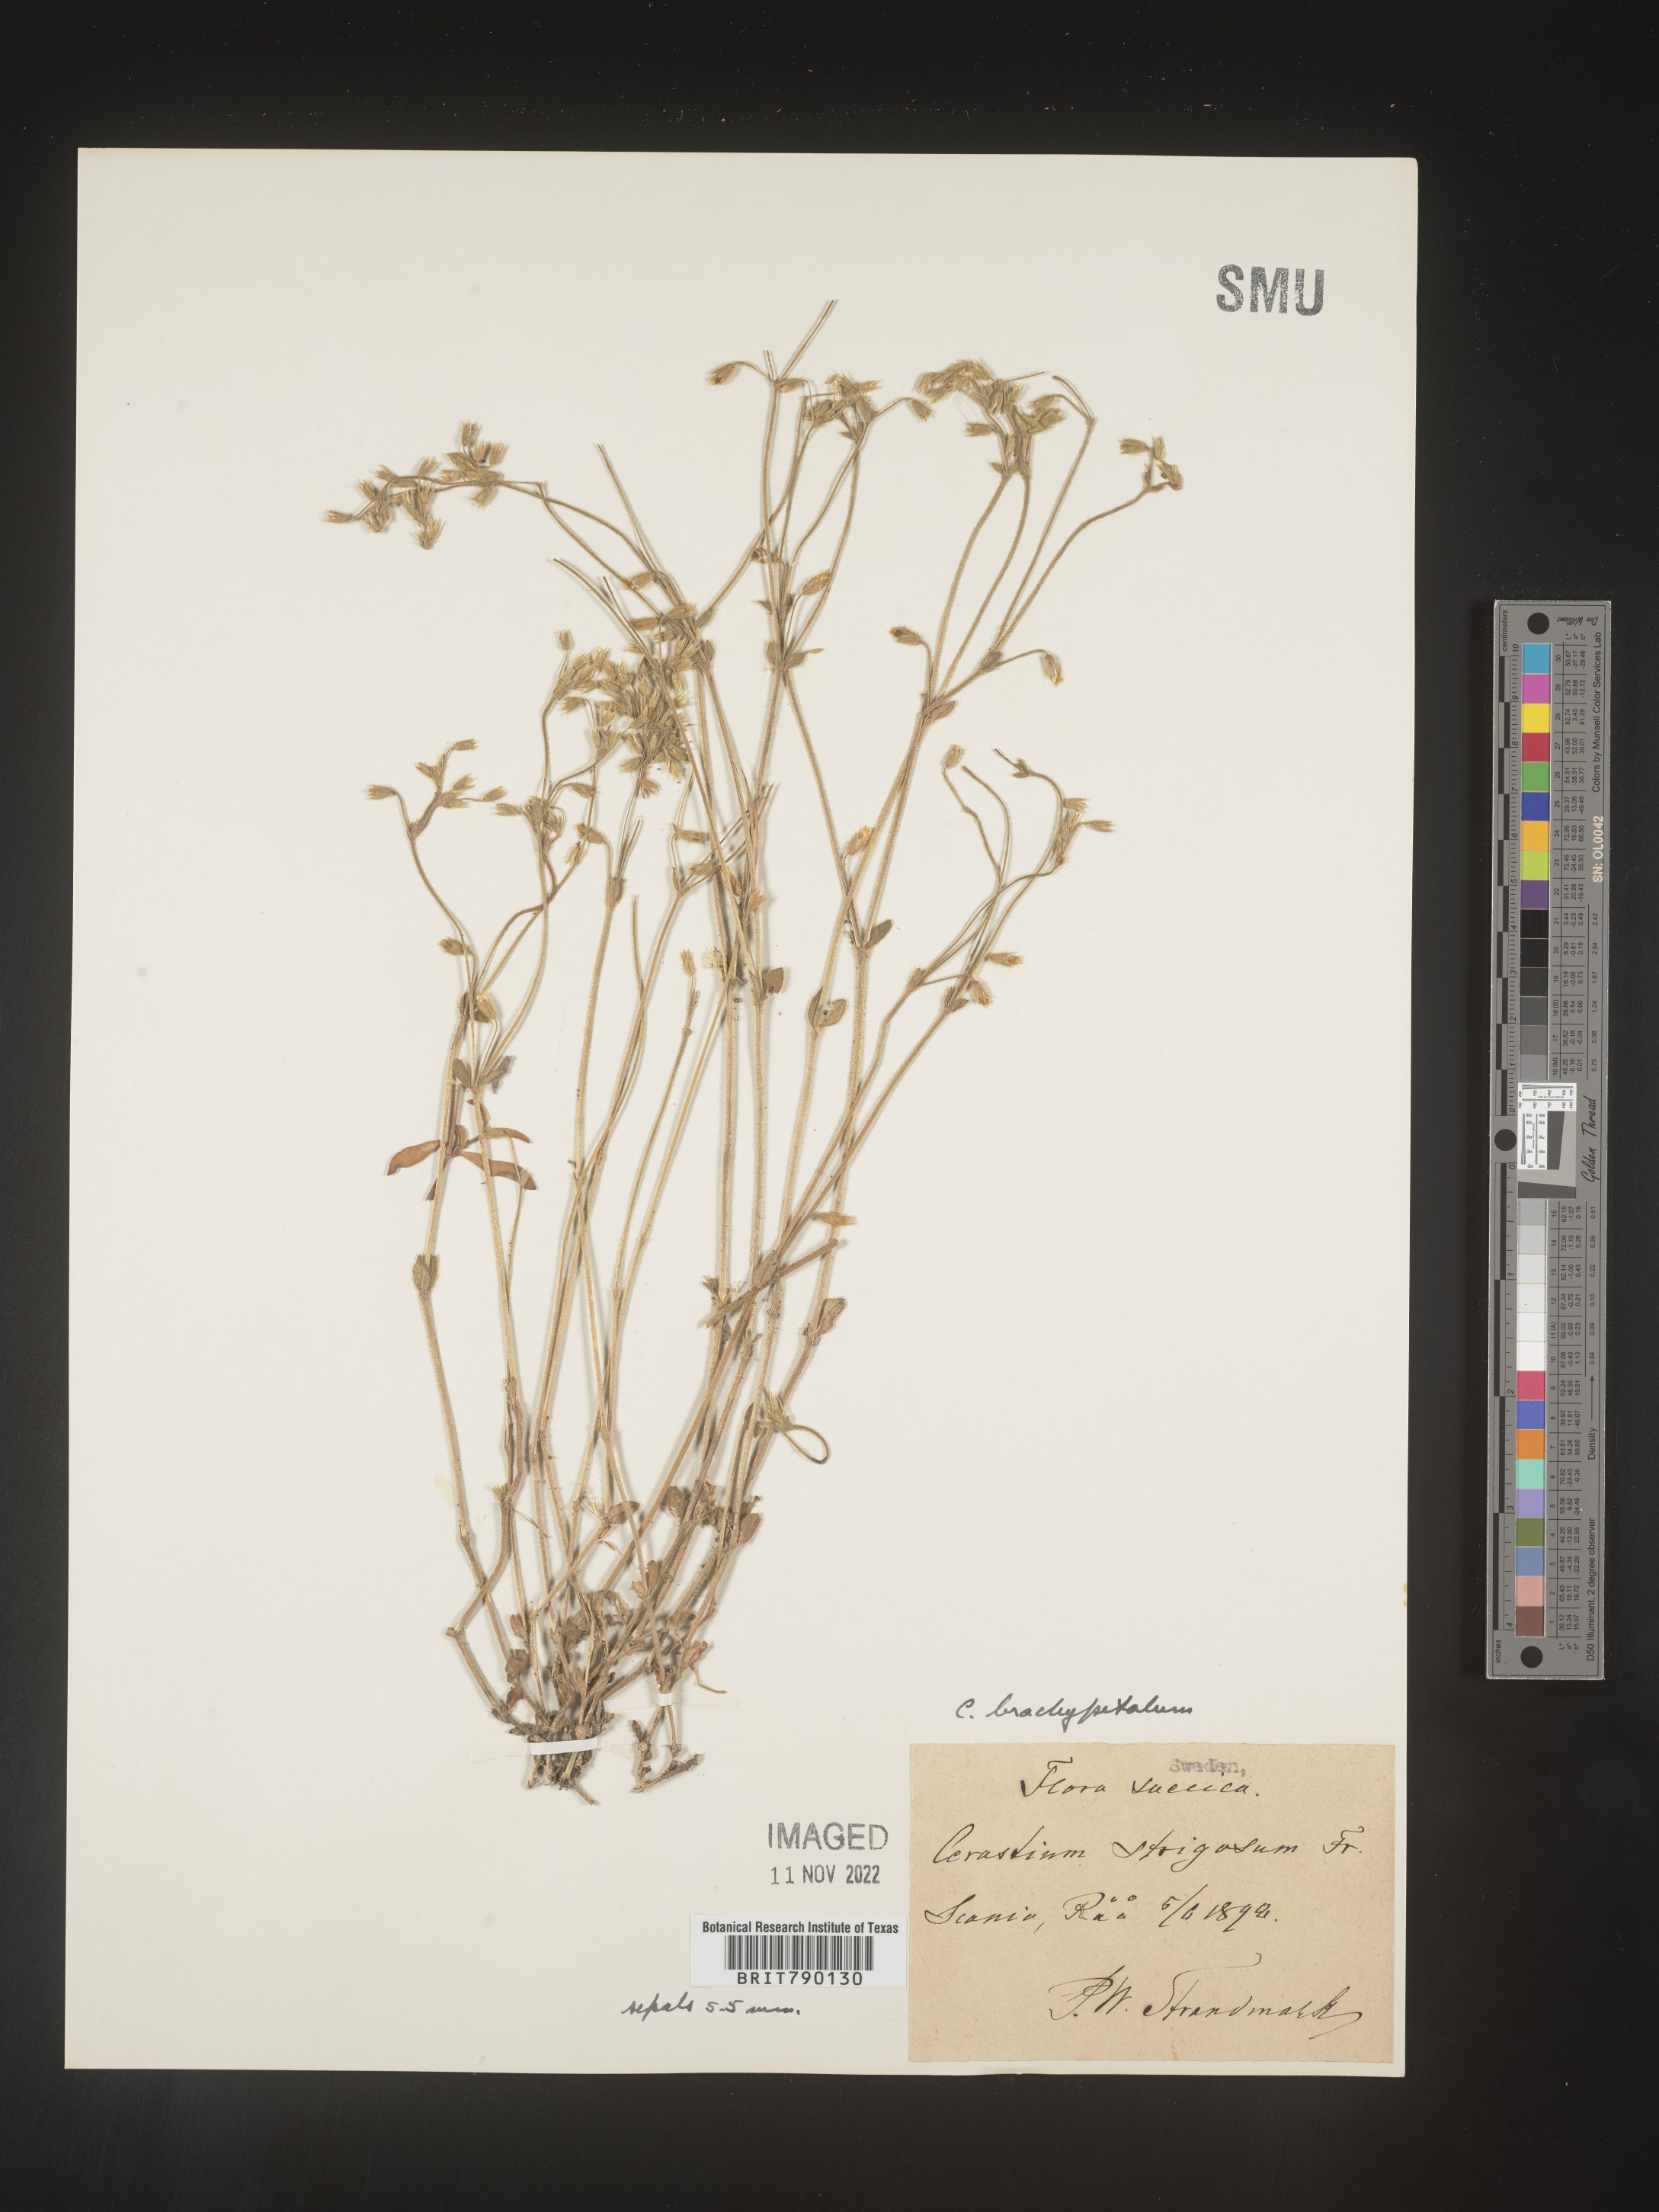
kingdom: Plantae
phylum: Tracheophyta
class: Magnoliopsida
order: Caryophyllales
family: Caryophyllaceae
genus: Cerastium
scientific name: Cerastium
